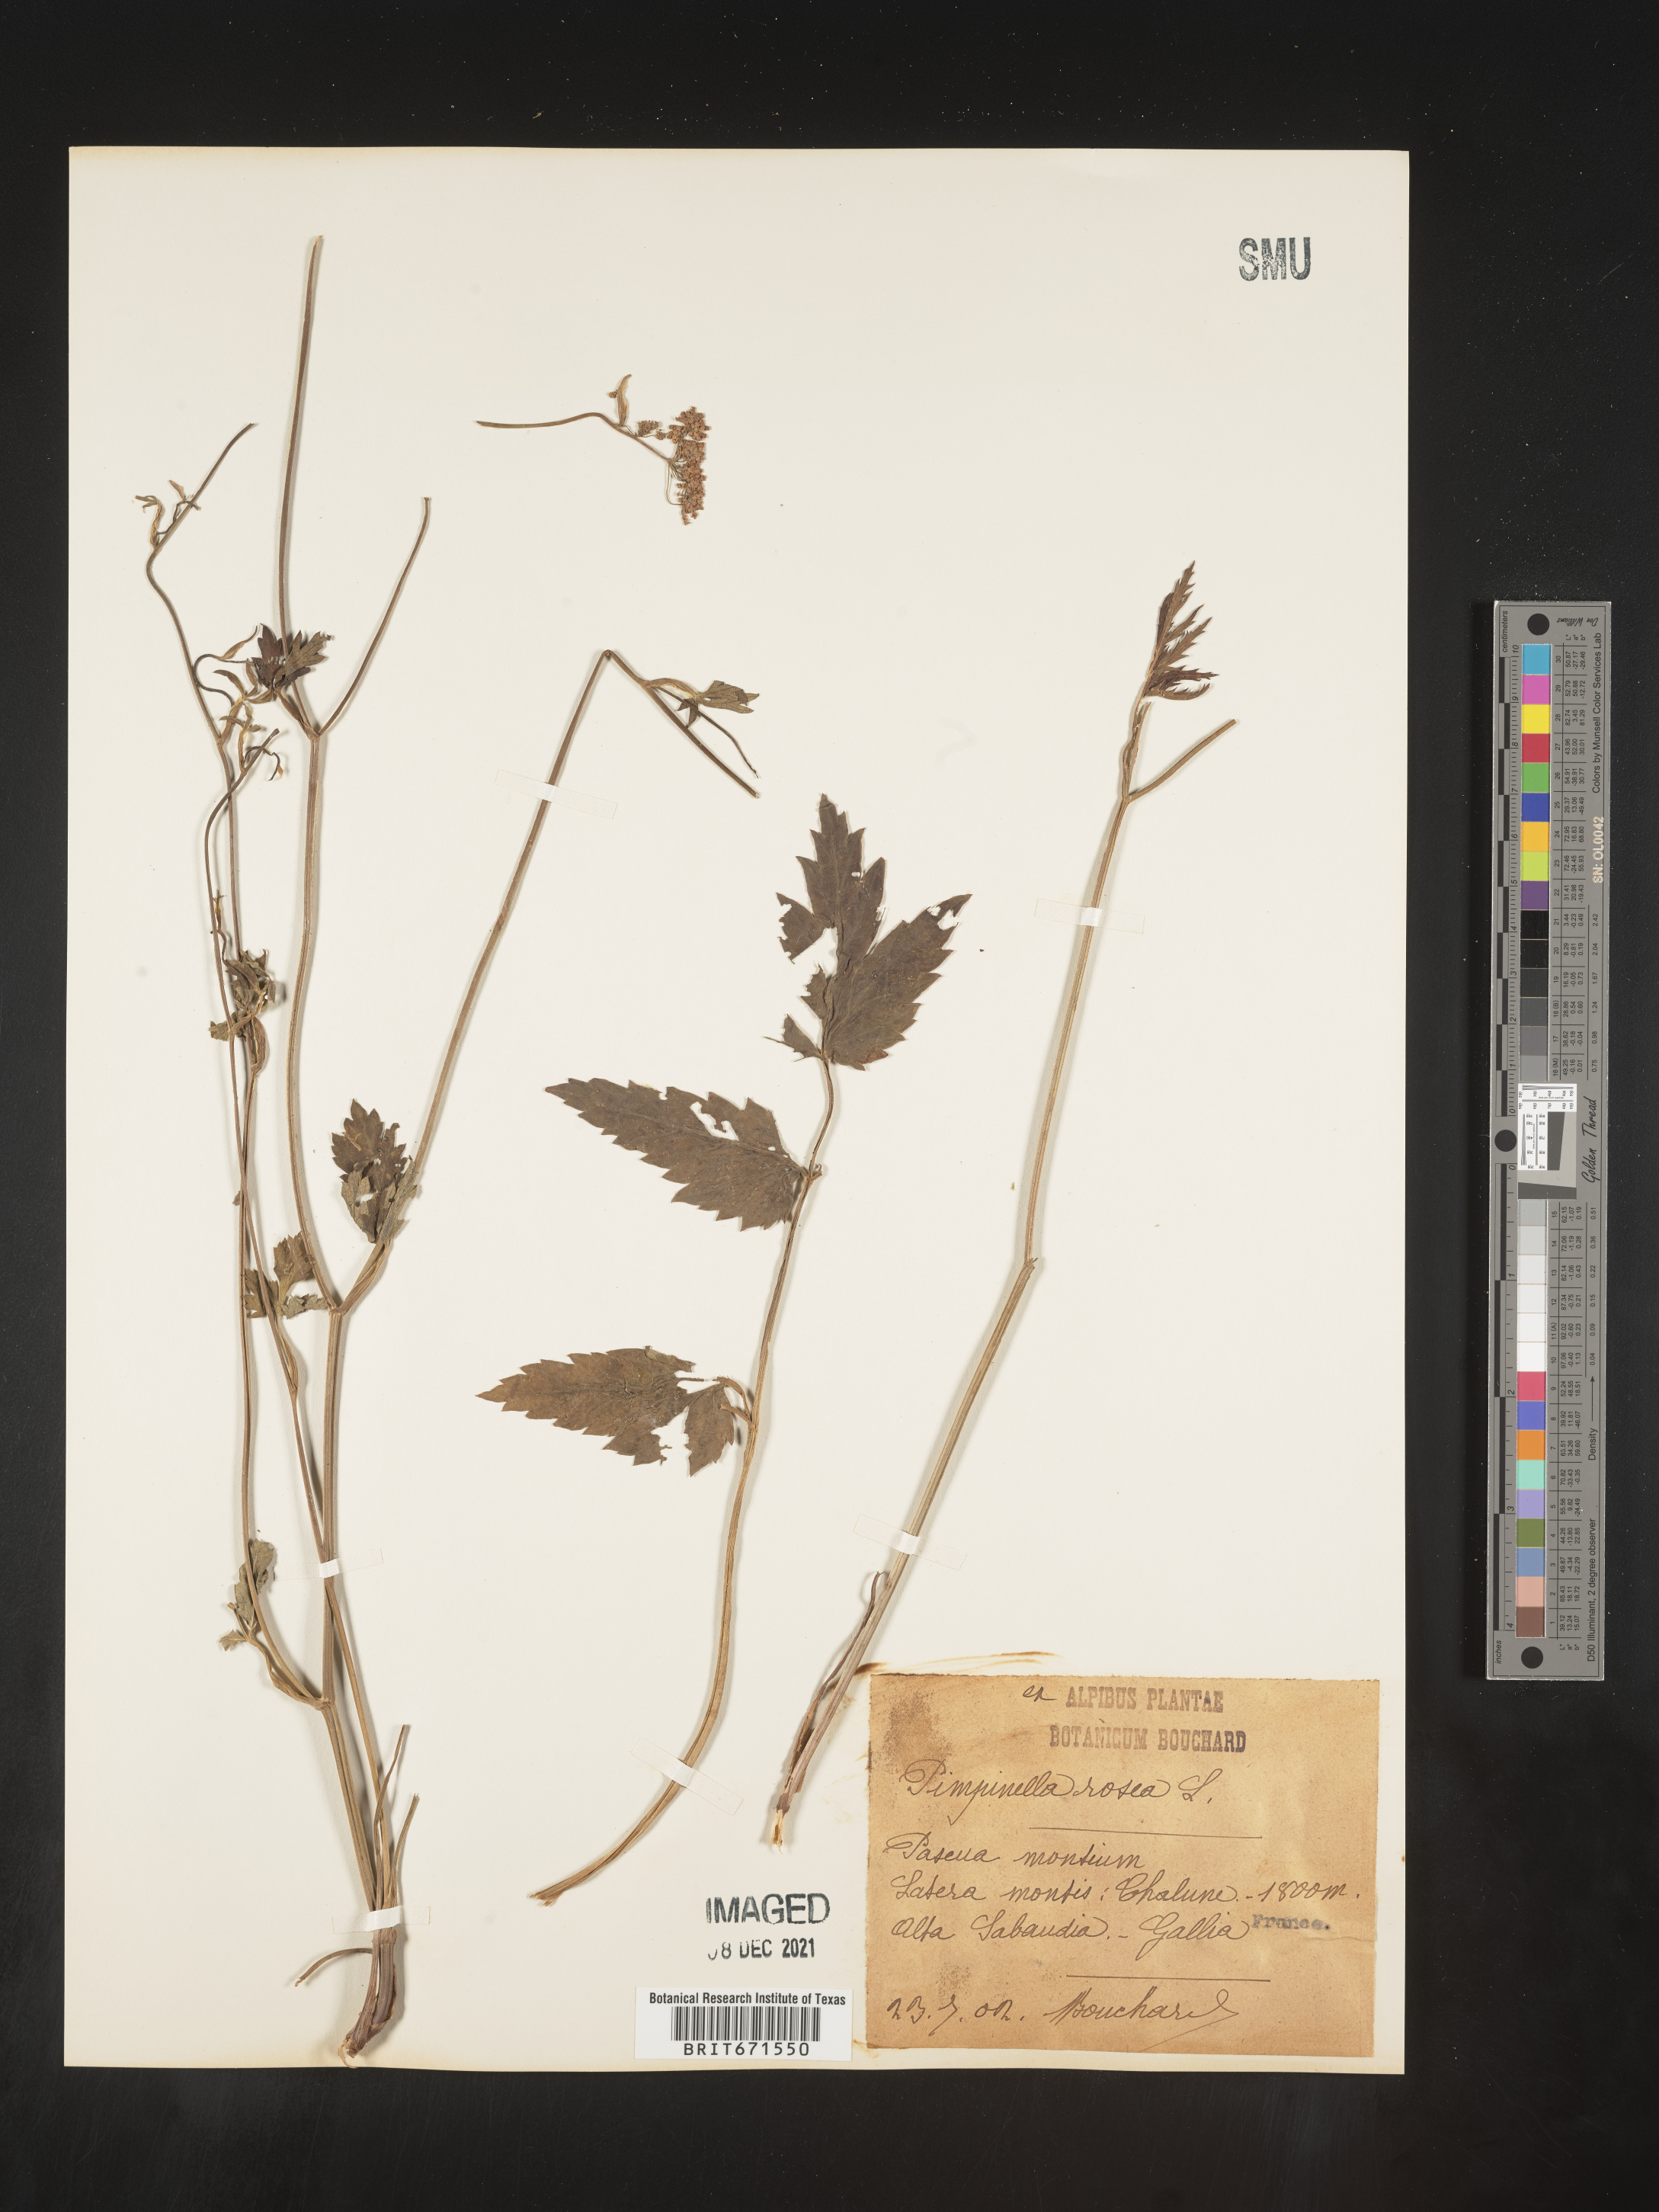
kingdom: Plantae
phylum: Tracheophyta
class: Magnoliopsida
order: Apiales
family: Apiaceae
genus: Pimpinella
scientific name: Pimpinella
